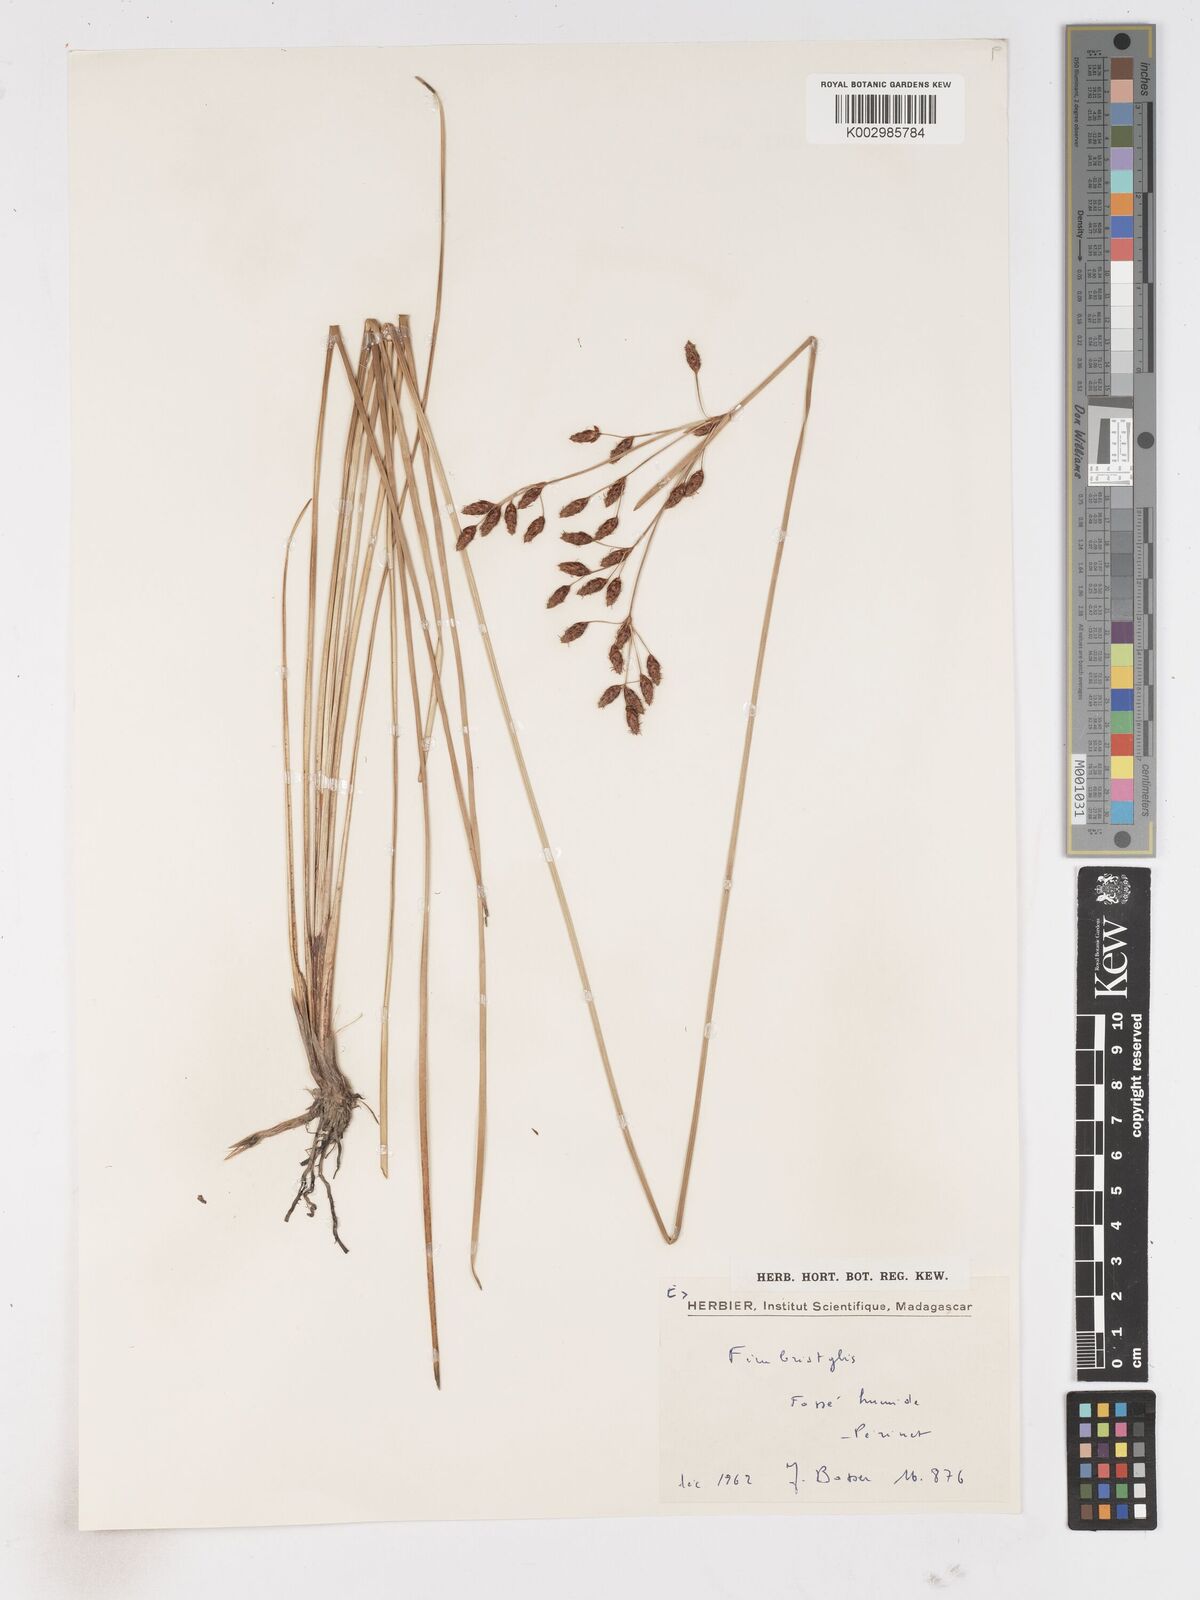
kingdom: Plantae
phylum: Tracheophyta
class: Liliopsida
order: Poales
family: Cyperaceae
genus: Fimbristylis
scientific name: Fimbristylis
